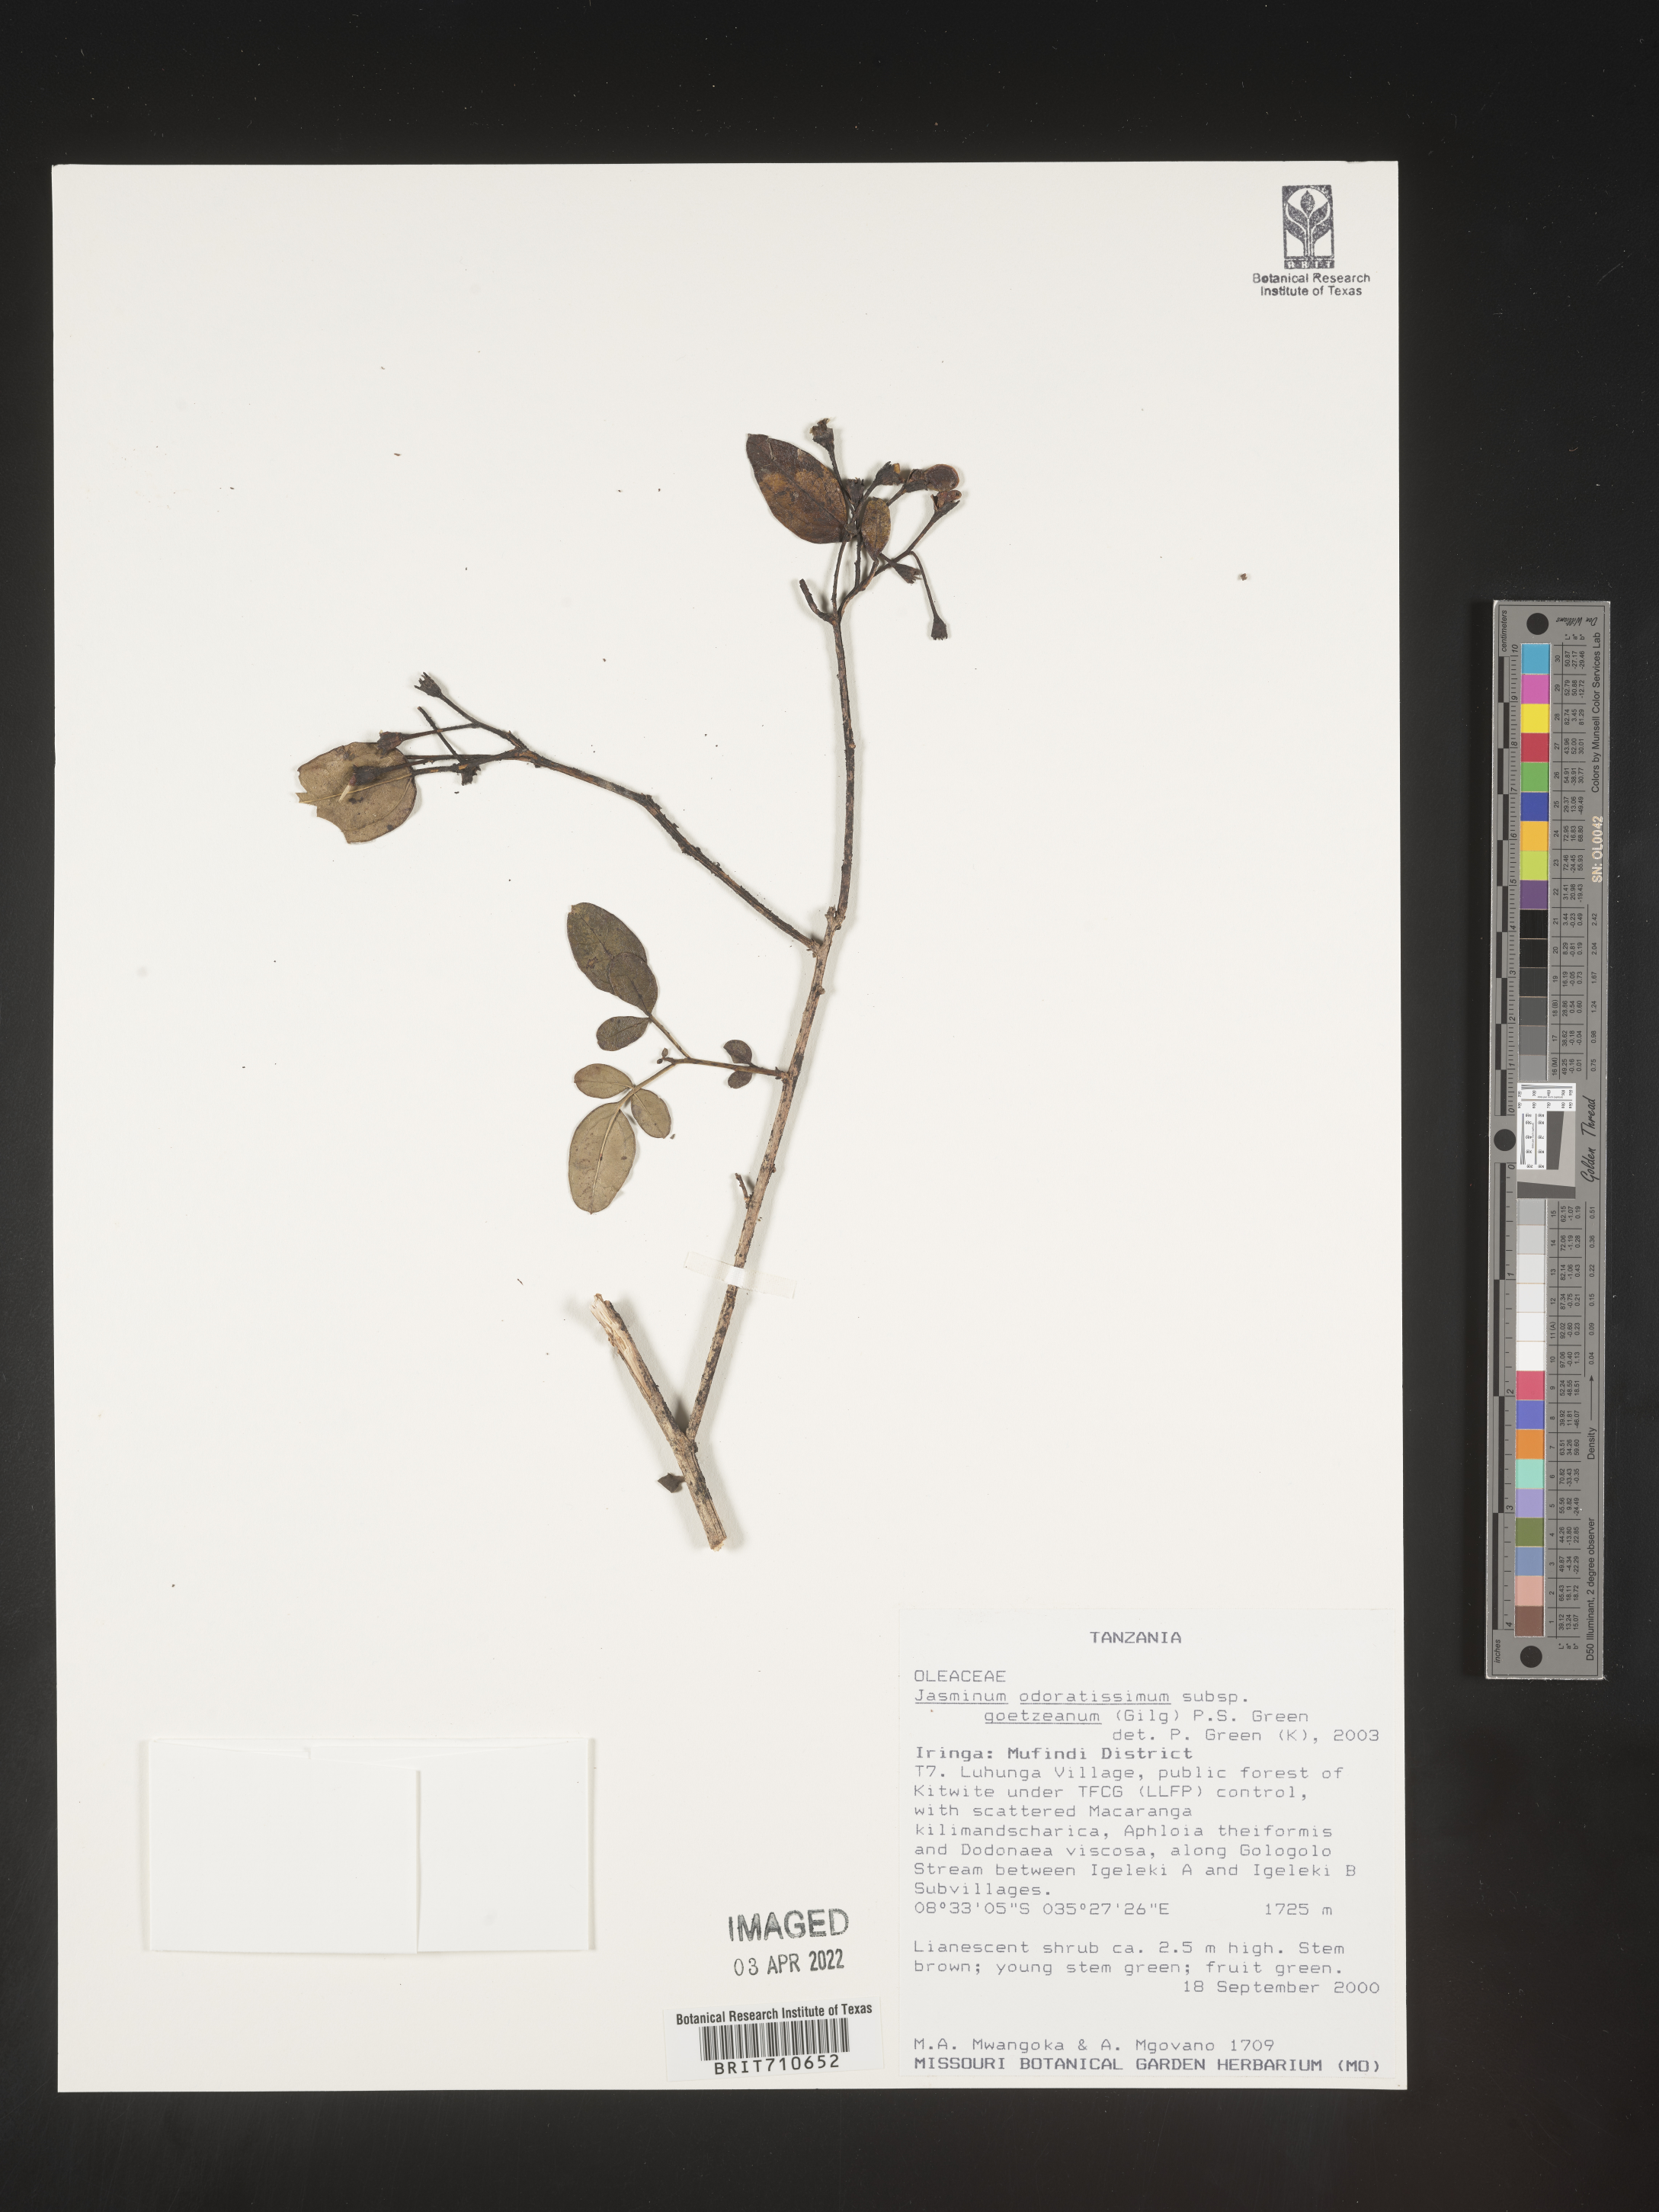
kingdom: Plantae
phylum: Tracheophyta
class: Magnoliopsida
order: Lamiales
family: Oleaceae
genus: Jasminum
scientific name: Jasminum
